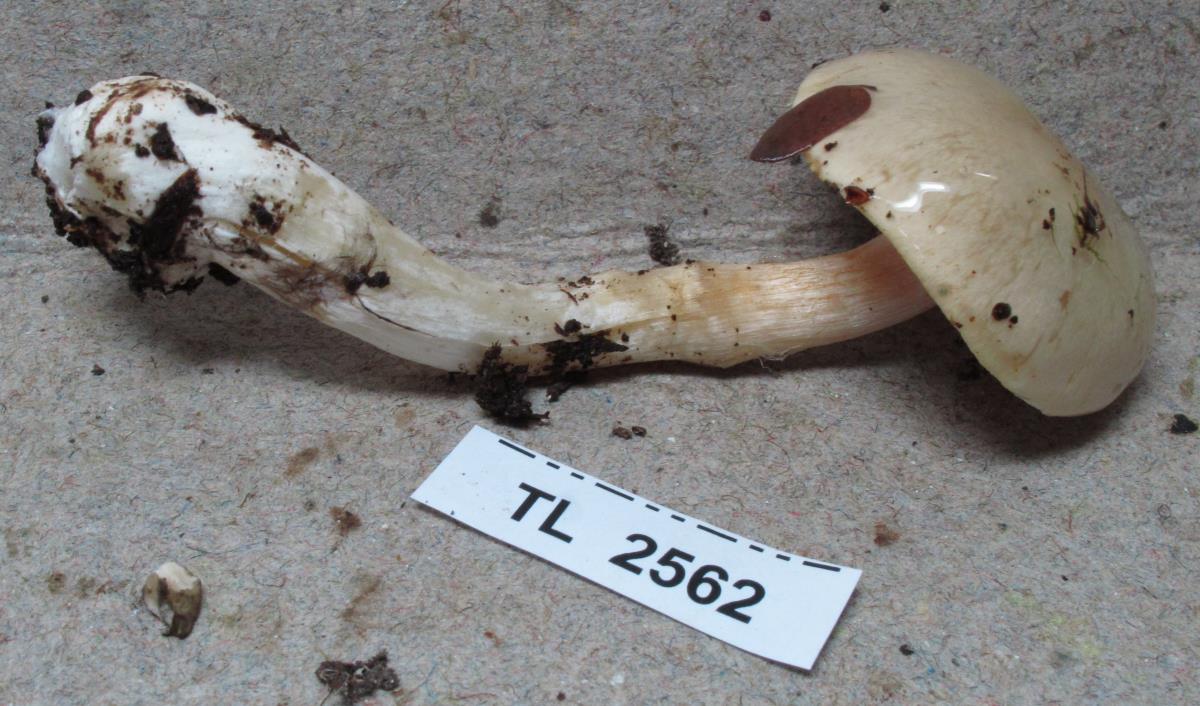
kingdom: Fungi
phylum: Basidiomycota
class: Agaricomycetes
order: Agaricales
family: Cortinariaceae
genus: Cortinarius
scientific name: Cortinarius
